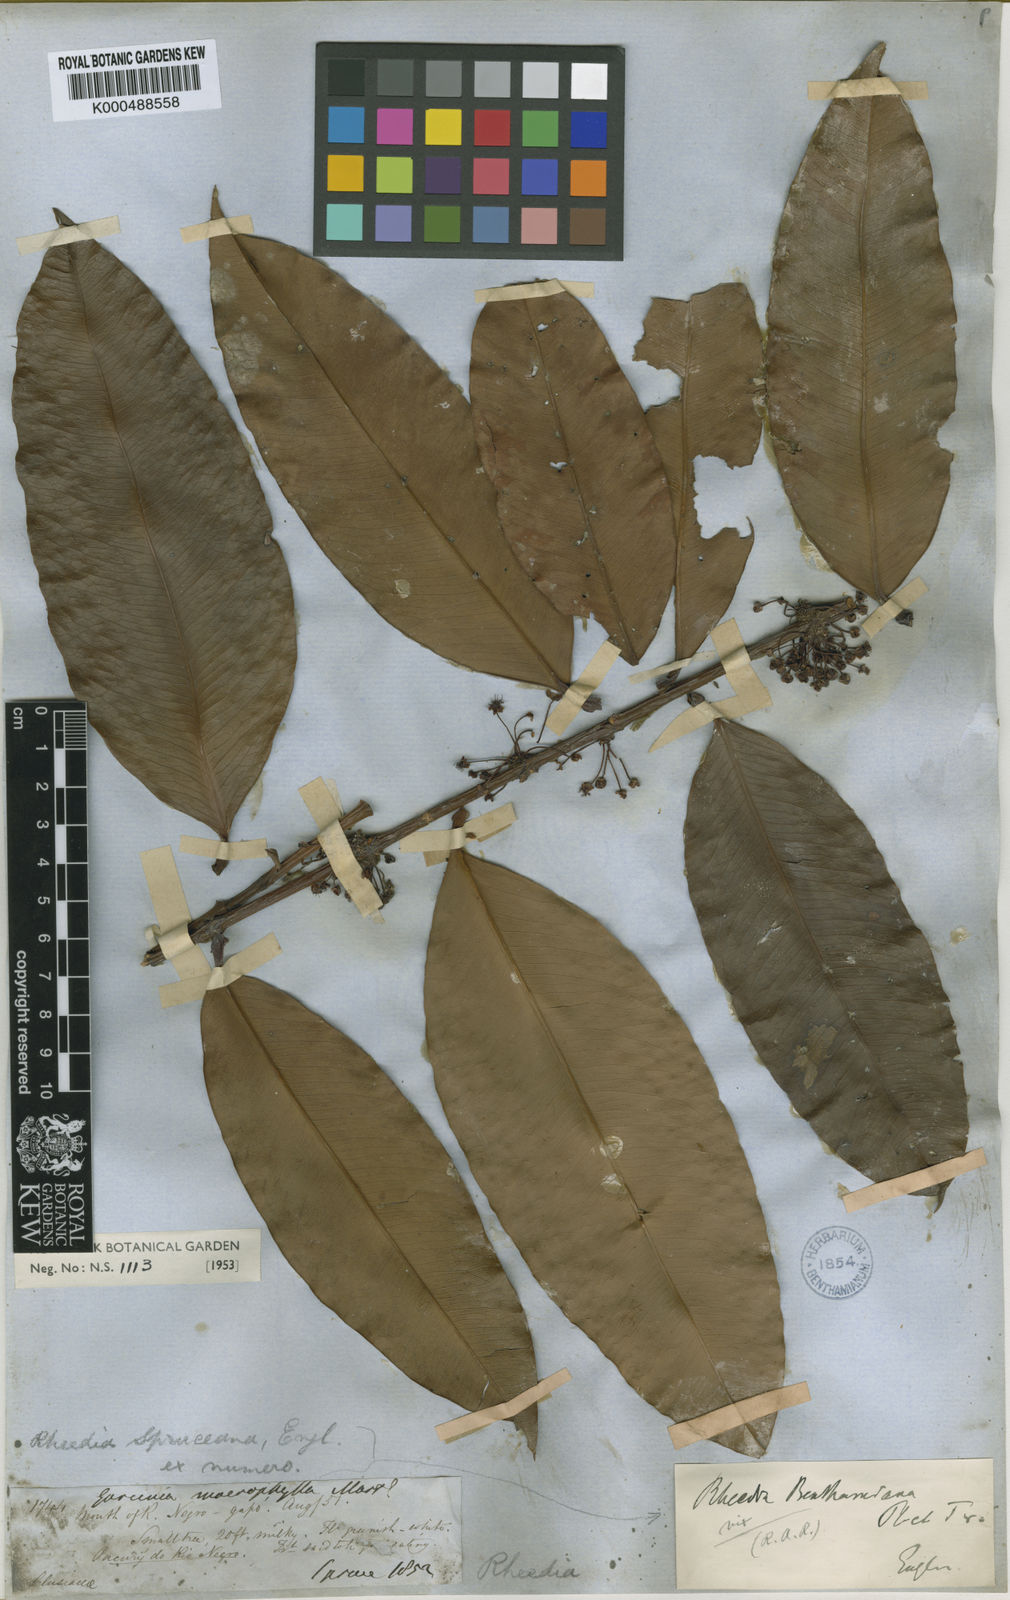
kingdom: Plantae
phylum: Tracheophyta
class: Magnoliopsida
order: Malpighiales
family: Clusiaceae
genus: Garcinia
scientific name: Garcinia
